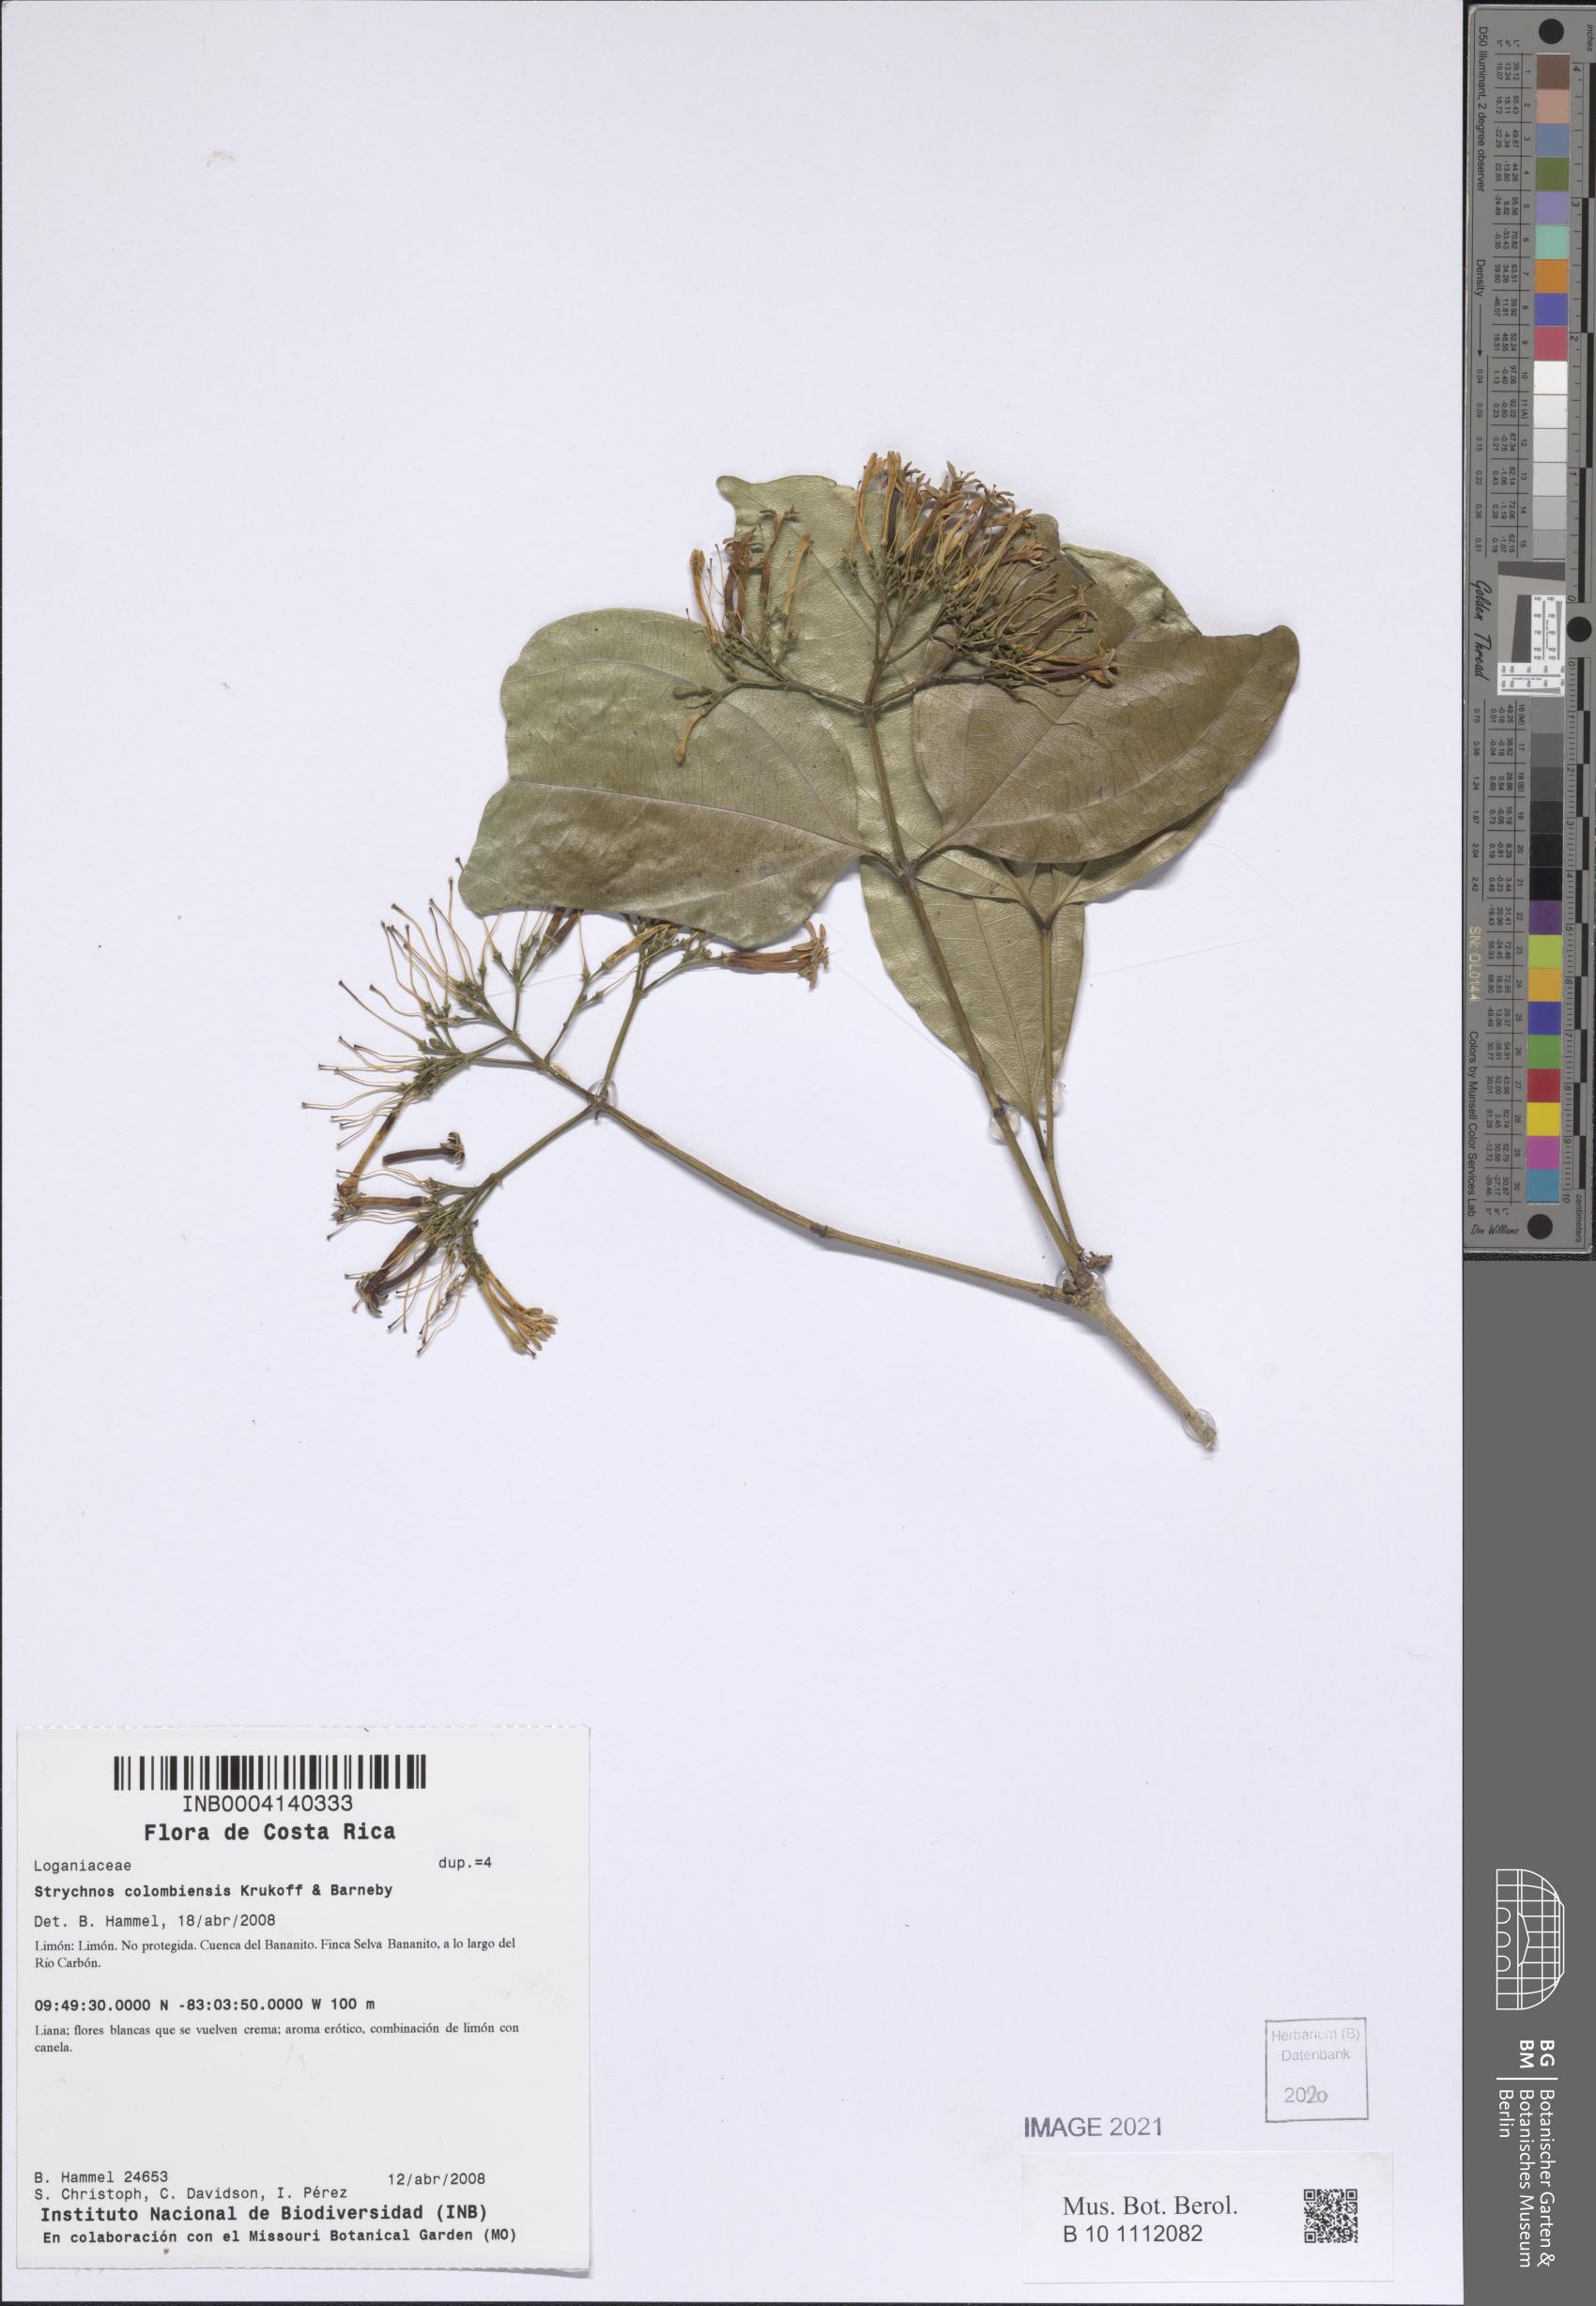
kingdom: Plantae
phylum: Tracheophyta
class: Magnoliopsida
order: Gentianales
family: Loganiaceae
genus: Strychnos
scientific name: Strychnos colombiensis
